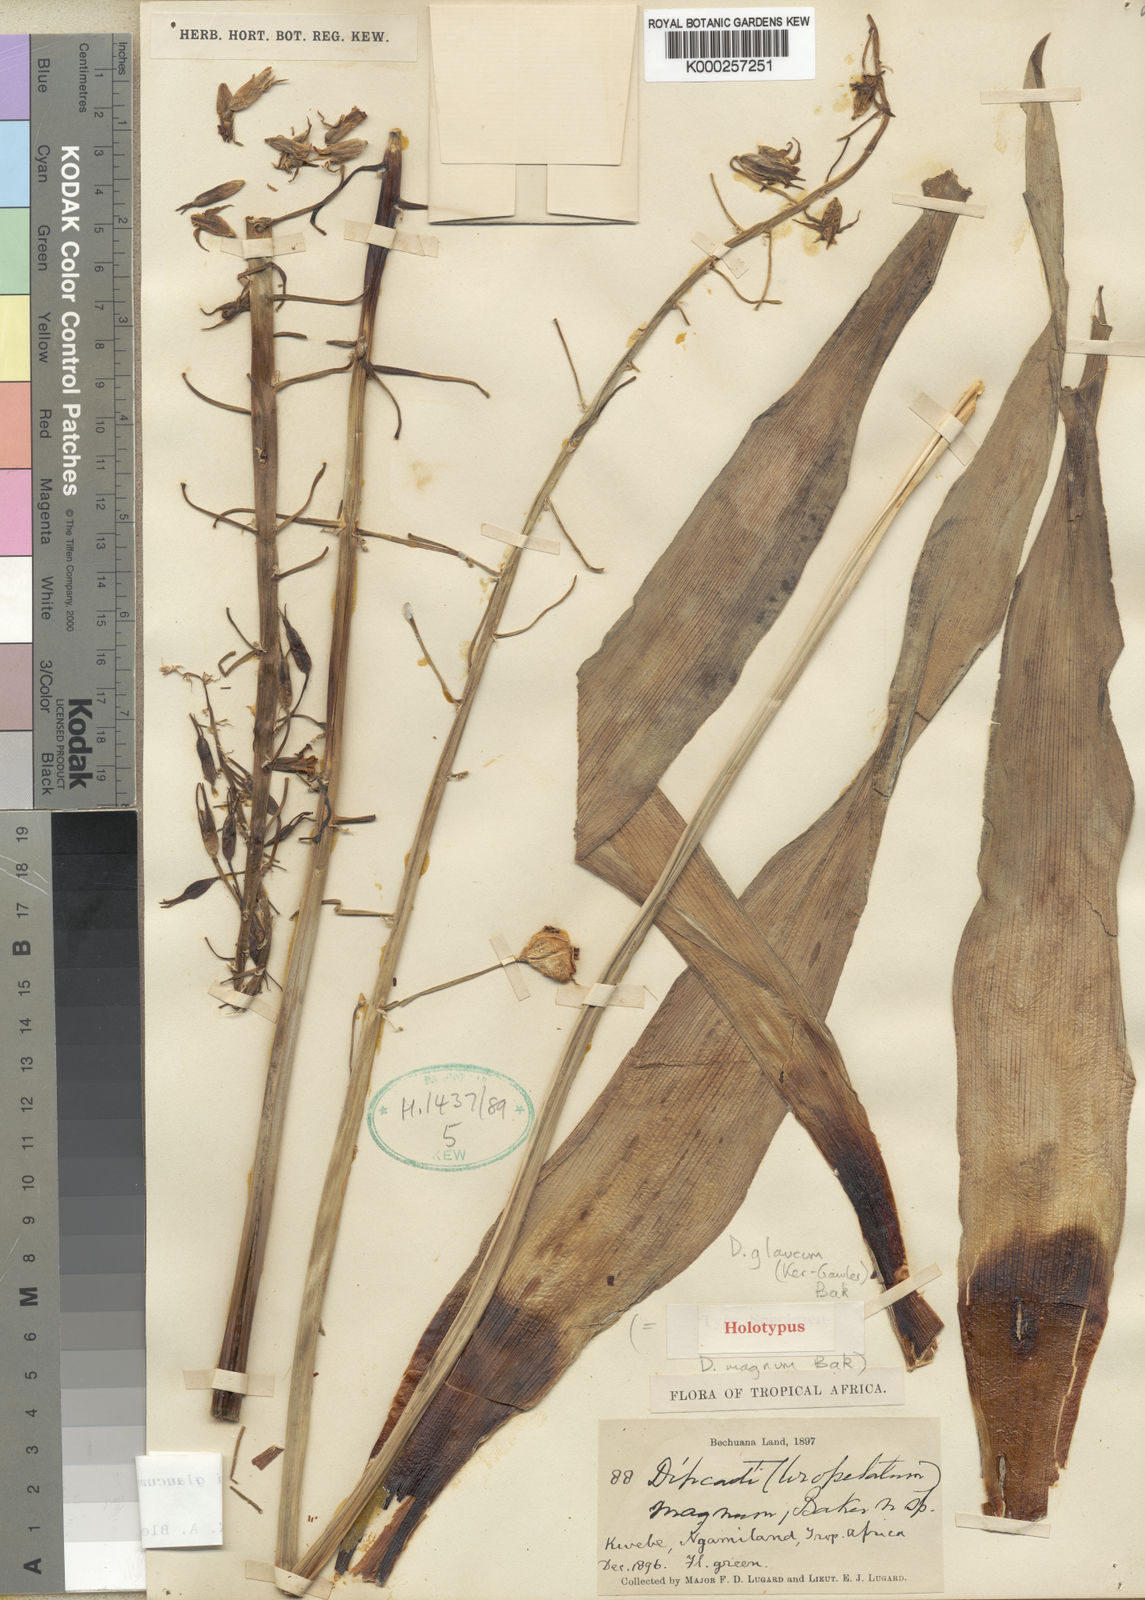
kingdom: Plantae
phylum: Tracheophyta
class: Liliopsida
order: Asparagales
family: Asparagaceae
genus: Dipcadi
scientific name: Dipcadi glaucum
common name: Wild onion
